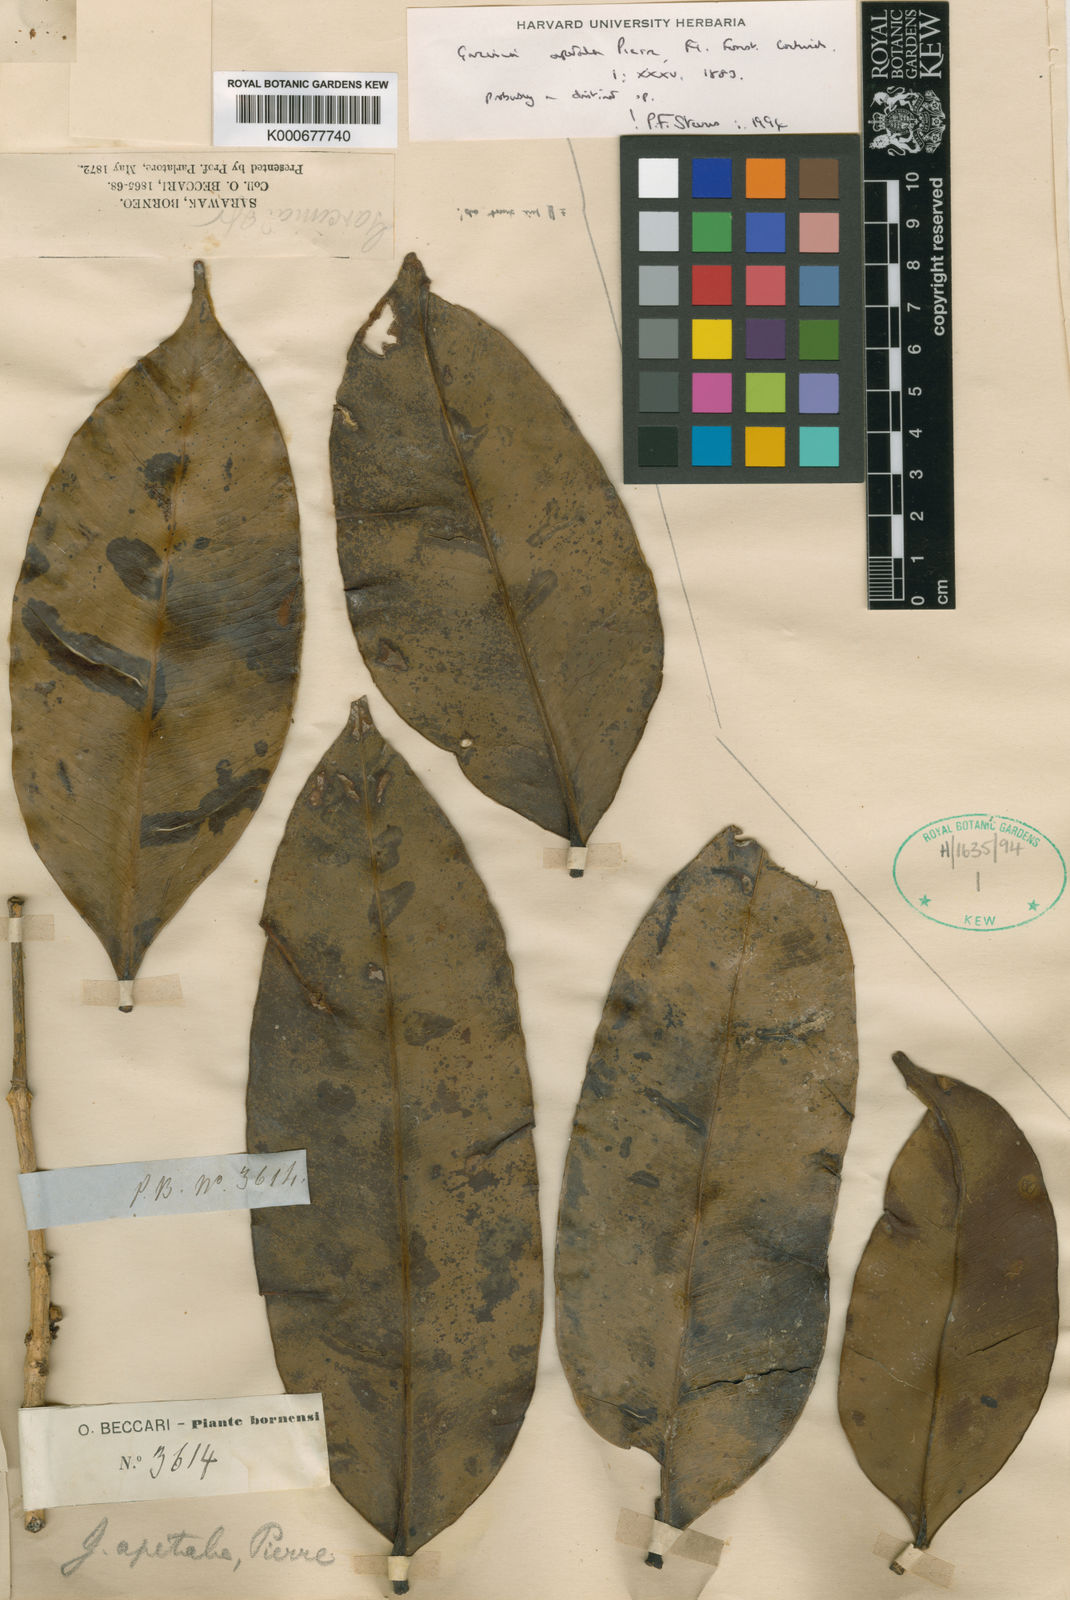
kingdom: Plantae
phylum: Tracheophyta
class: Magnoliopsida
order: Malpighiales
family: Clusiaceae
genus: Garcinia
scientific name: Garcinia apetala
